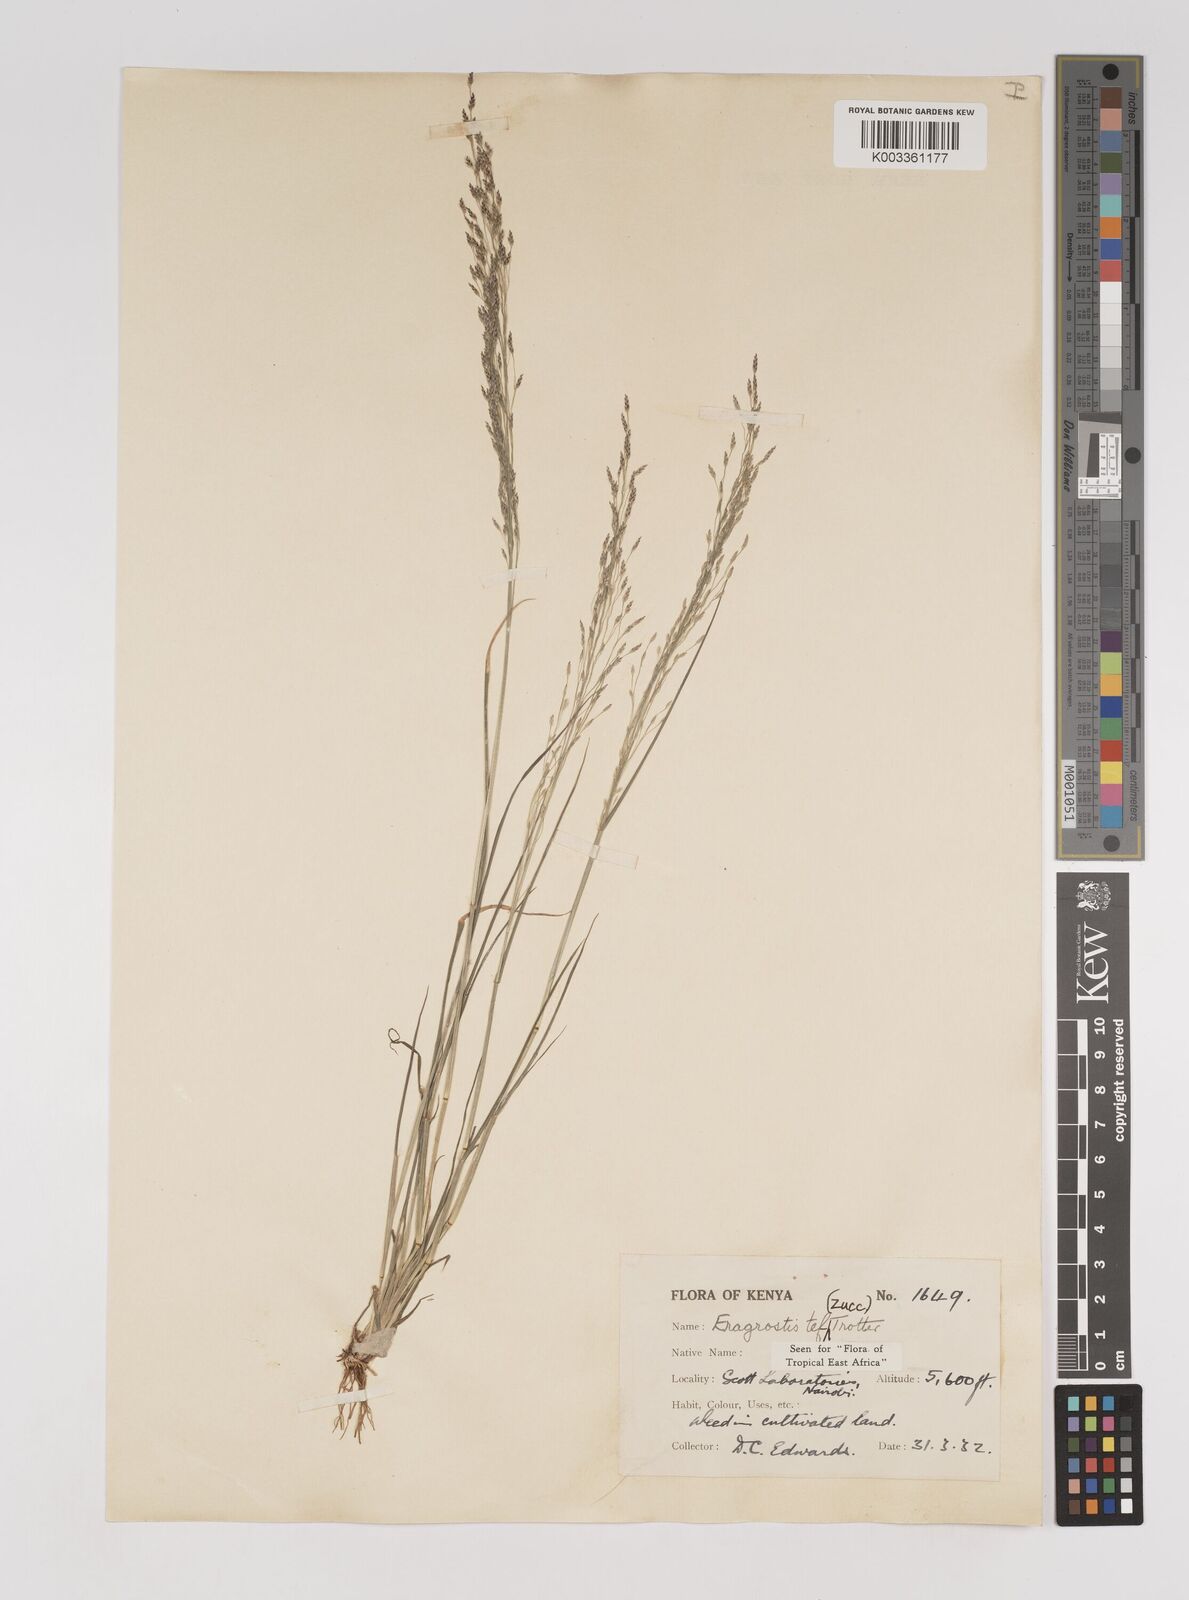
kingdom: Plantae
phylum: Tracheophyta
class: Liliopsida
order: Poales
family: Poaceae
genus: Eragrostis
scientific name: Eragrostis tef
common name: Teff
